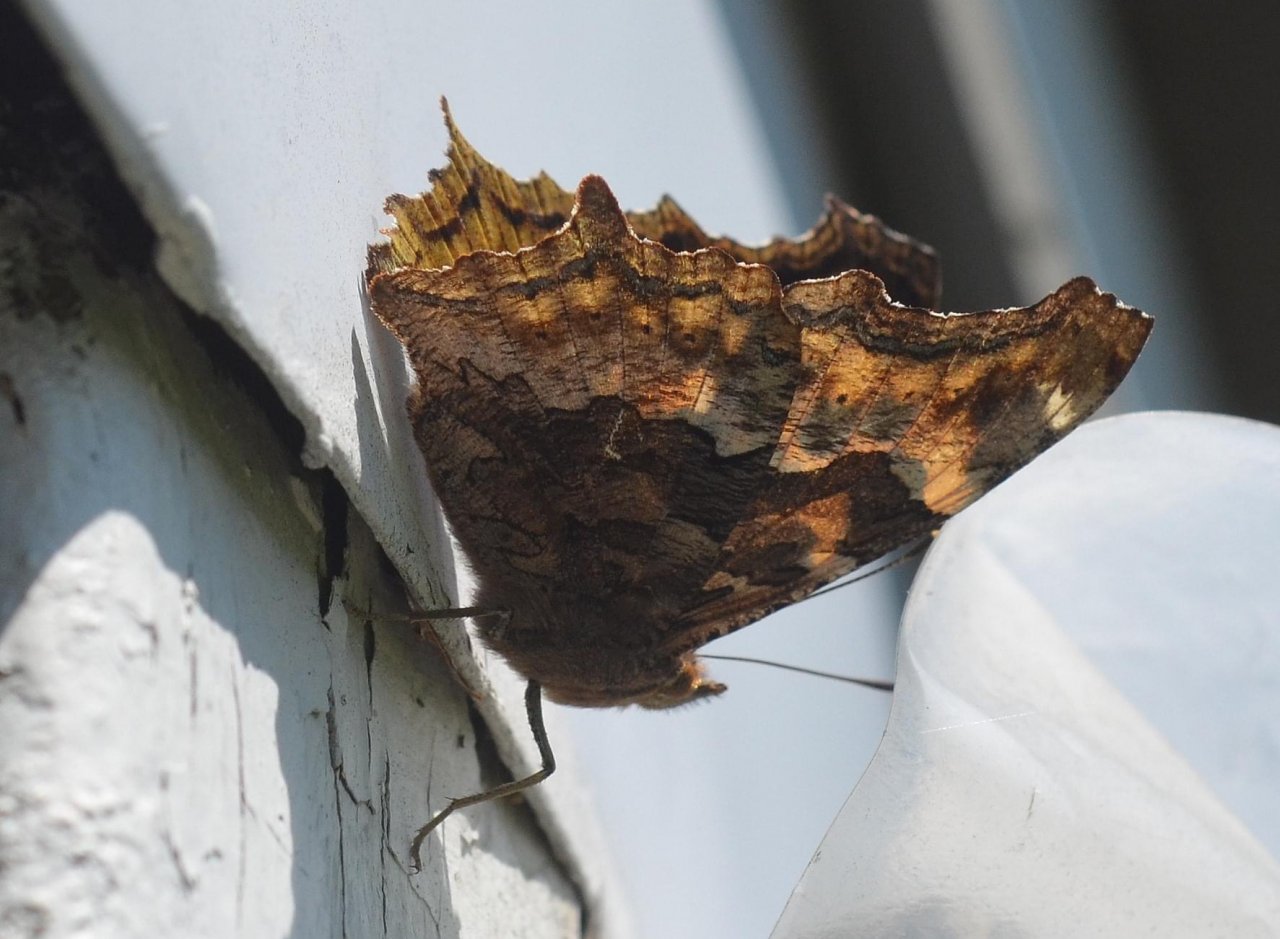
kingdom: Animalia
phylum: Arthropoda
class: Insecta
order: Lepidoptera
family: Nymphalidae
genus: Polygonia
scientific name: Polygonia vaualbum
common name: Compton Tortoiseshell
